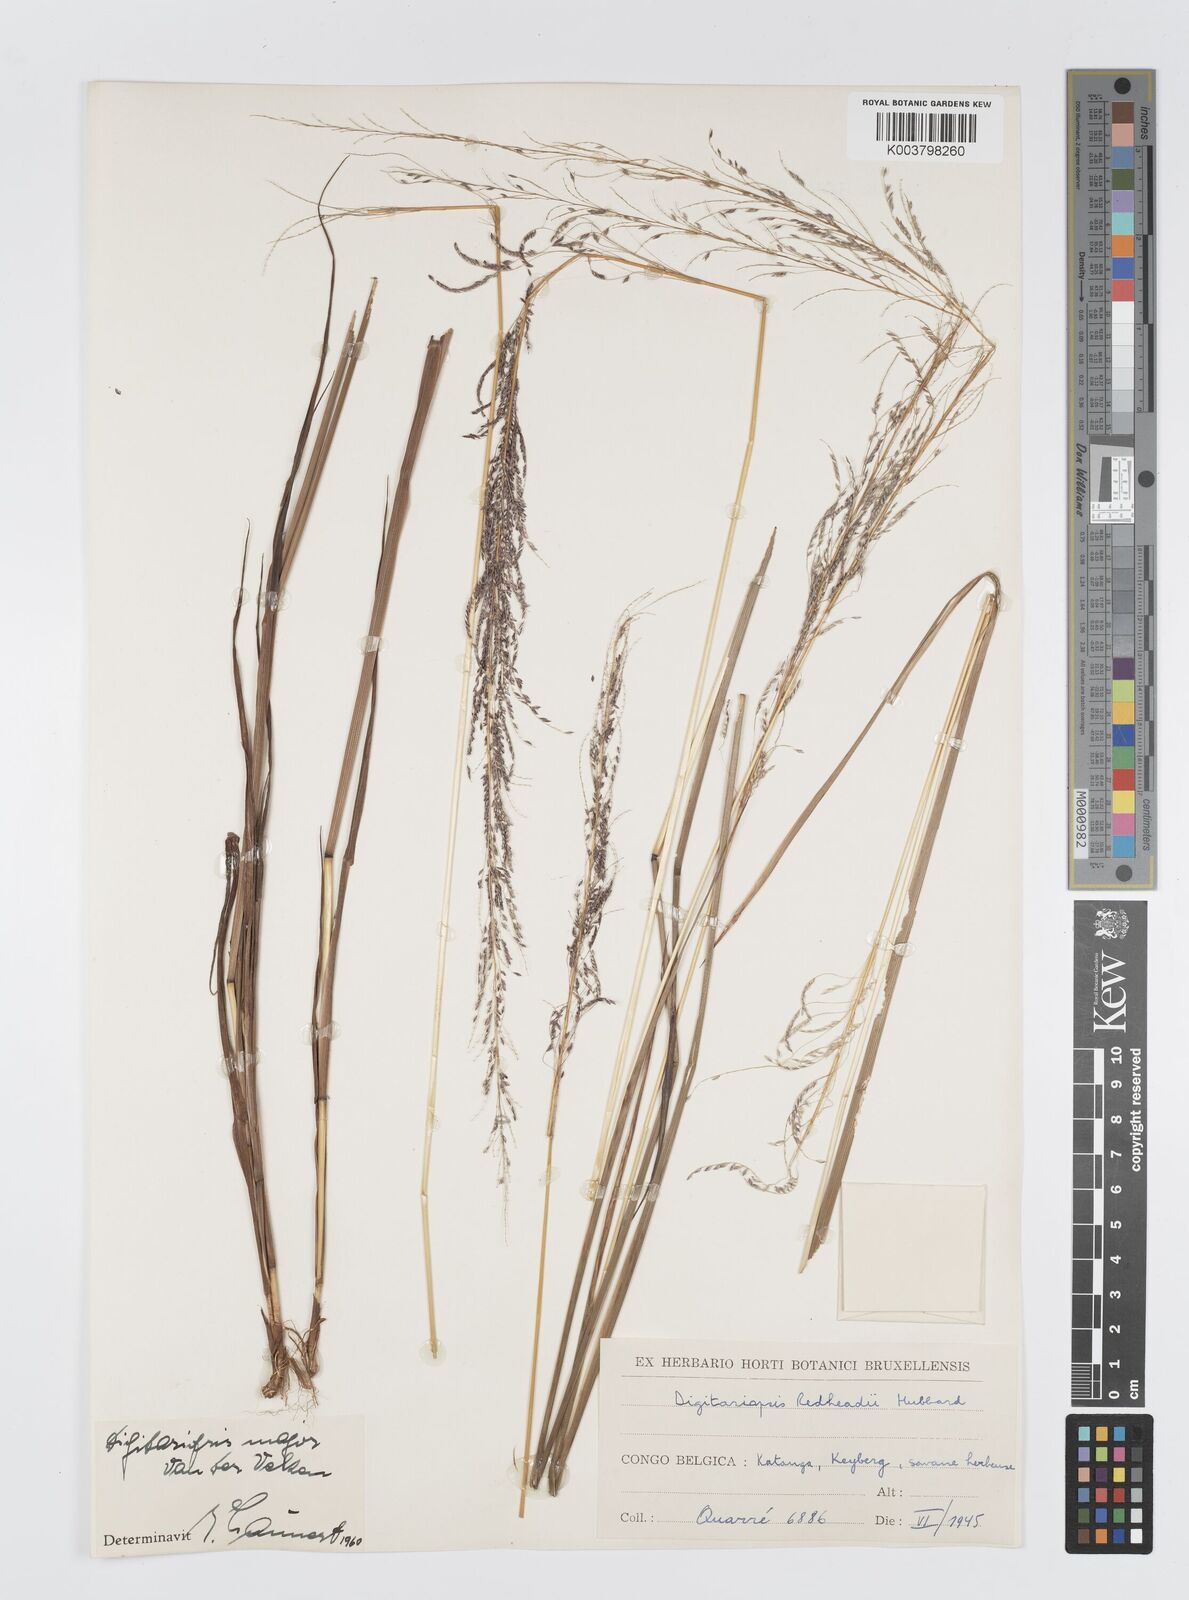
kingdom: Plantae
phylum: Tracheophyta
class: Liliopsida
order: Poales
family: Poaceae
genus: Digitaria
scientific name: Digitaria poggeana
